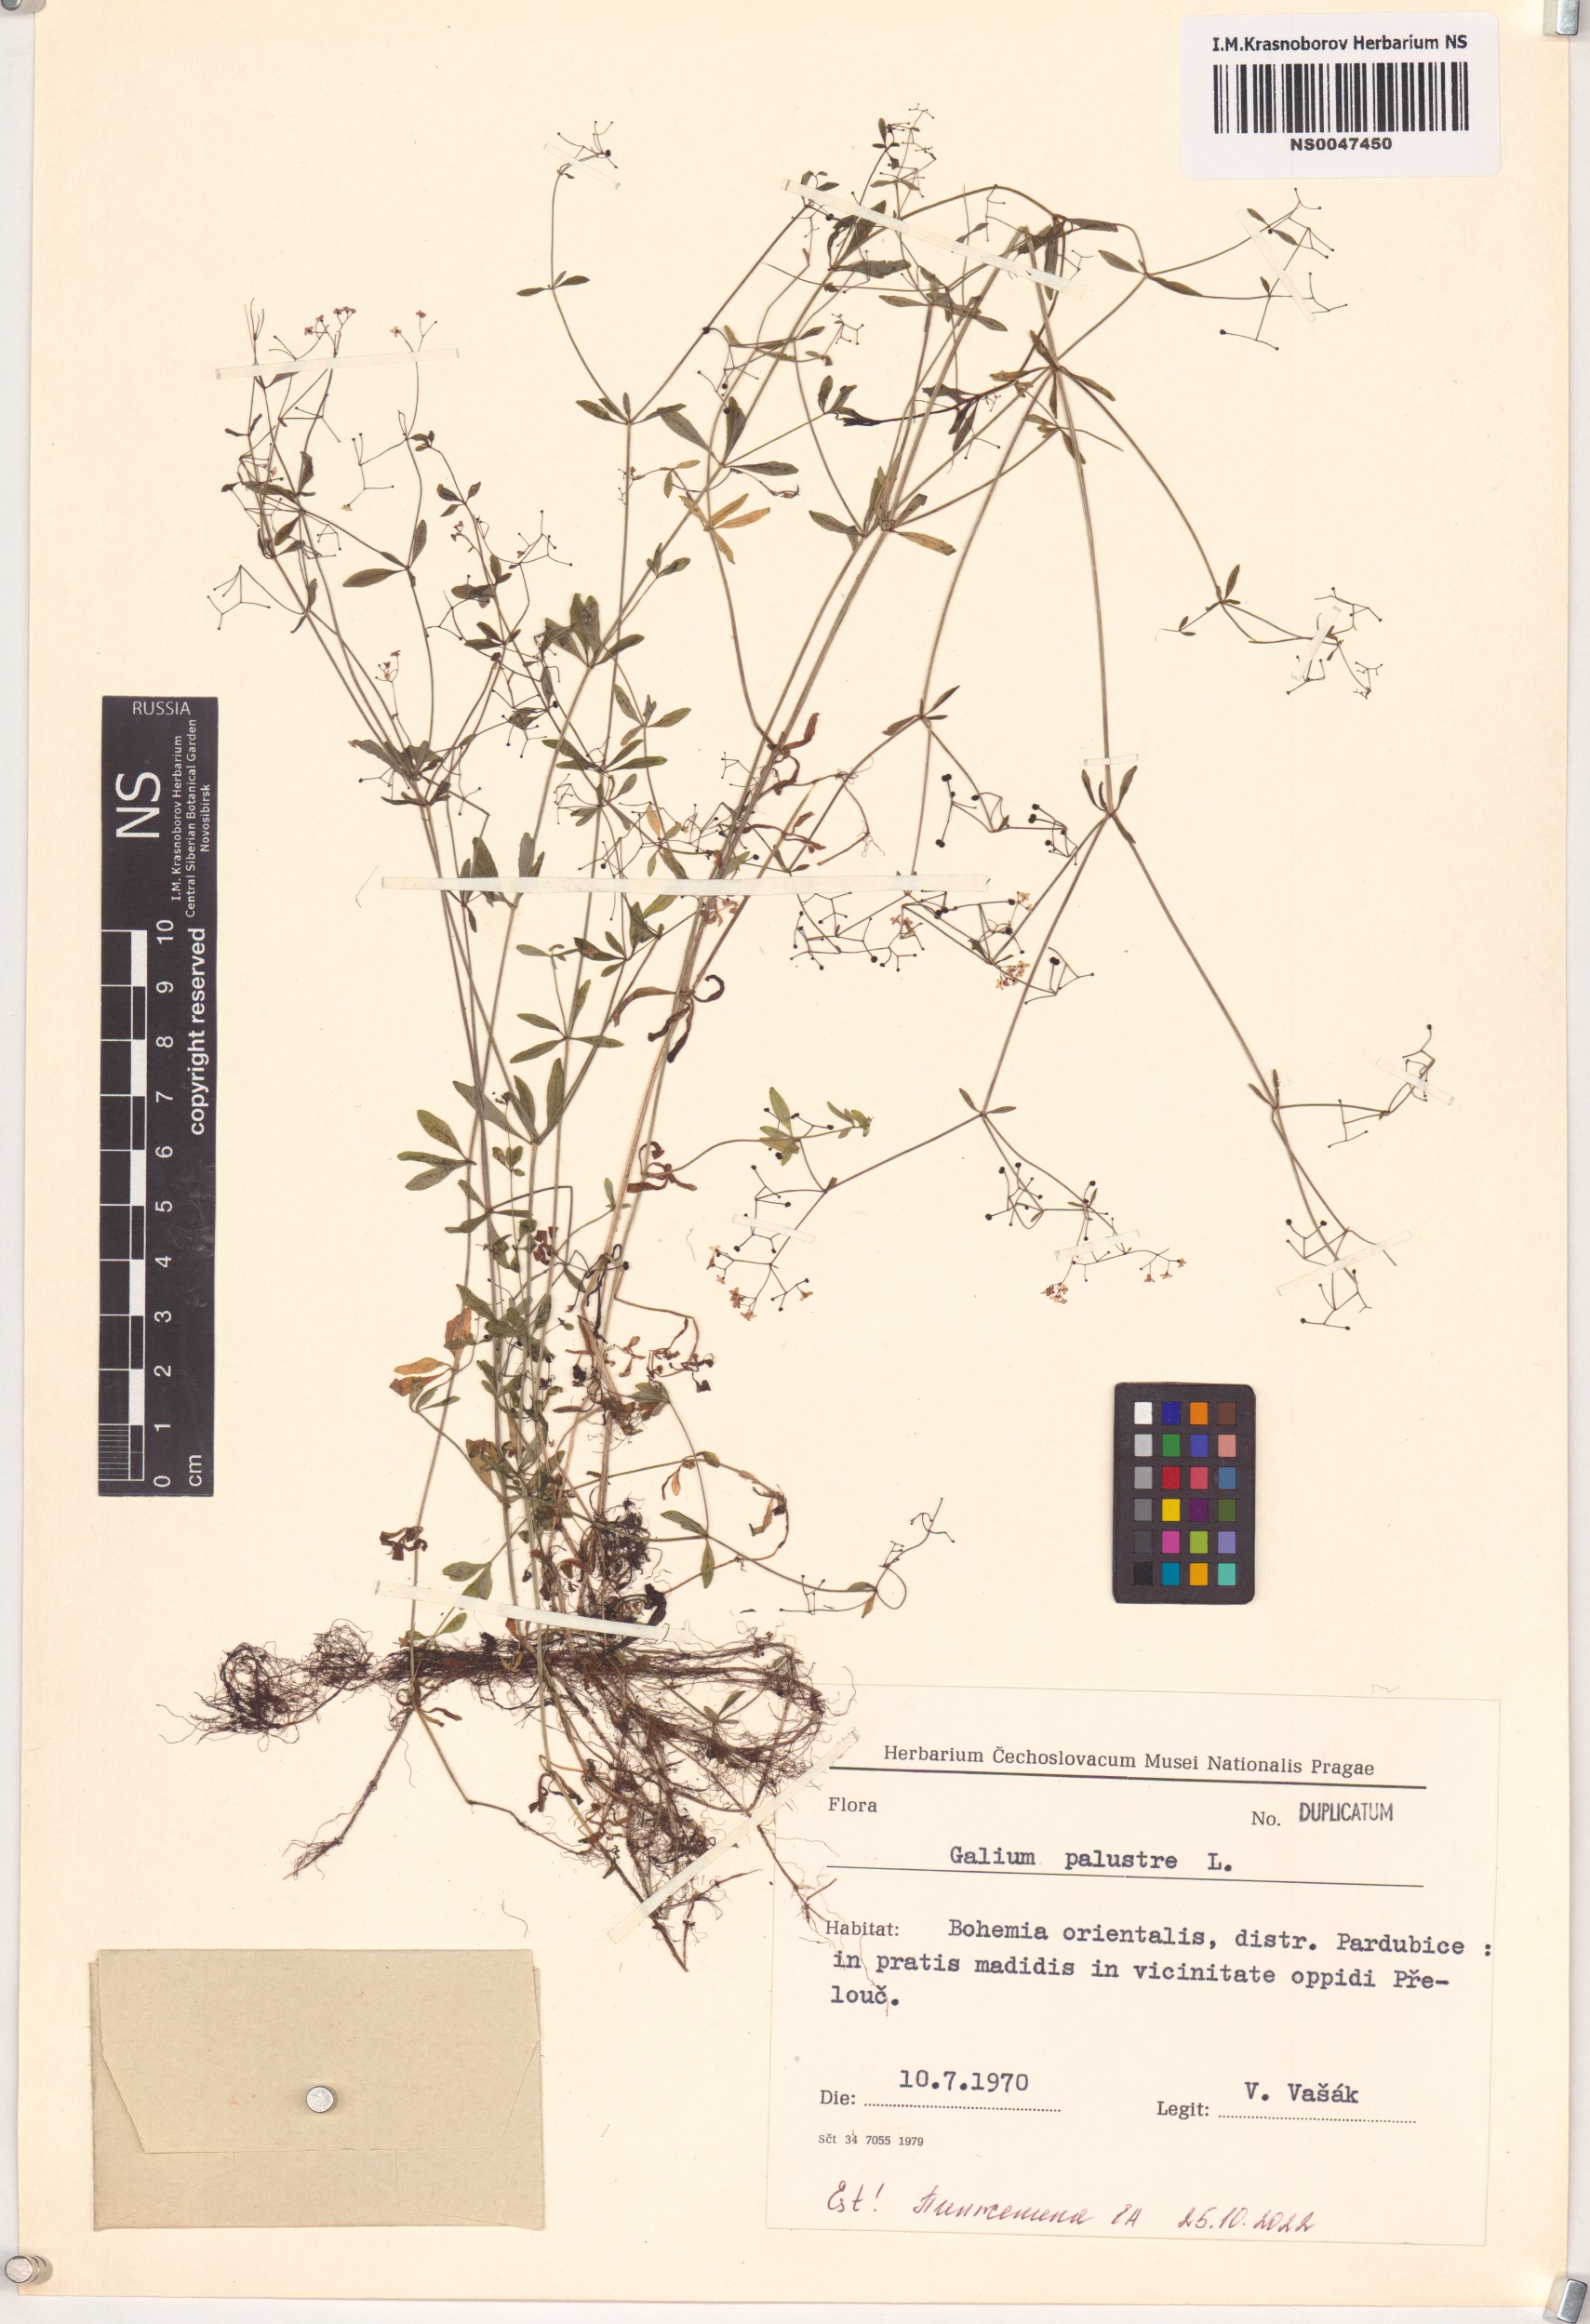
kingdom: Plantae
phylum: Tracheophyta
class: Magnoliopsida
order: Gentianales
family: Rubiaceae
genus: Galium
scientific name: Galium palustre
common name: Common marsh-bedstraw
